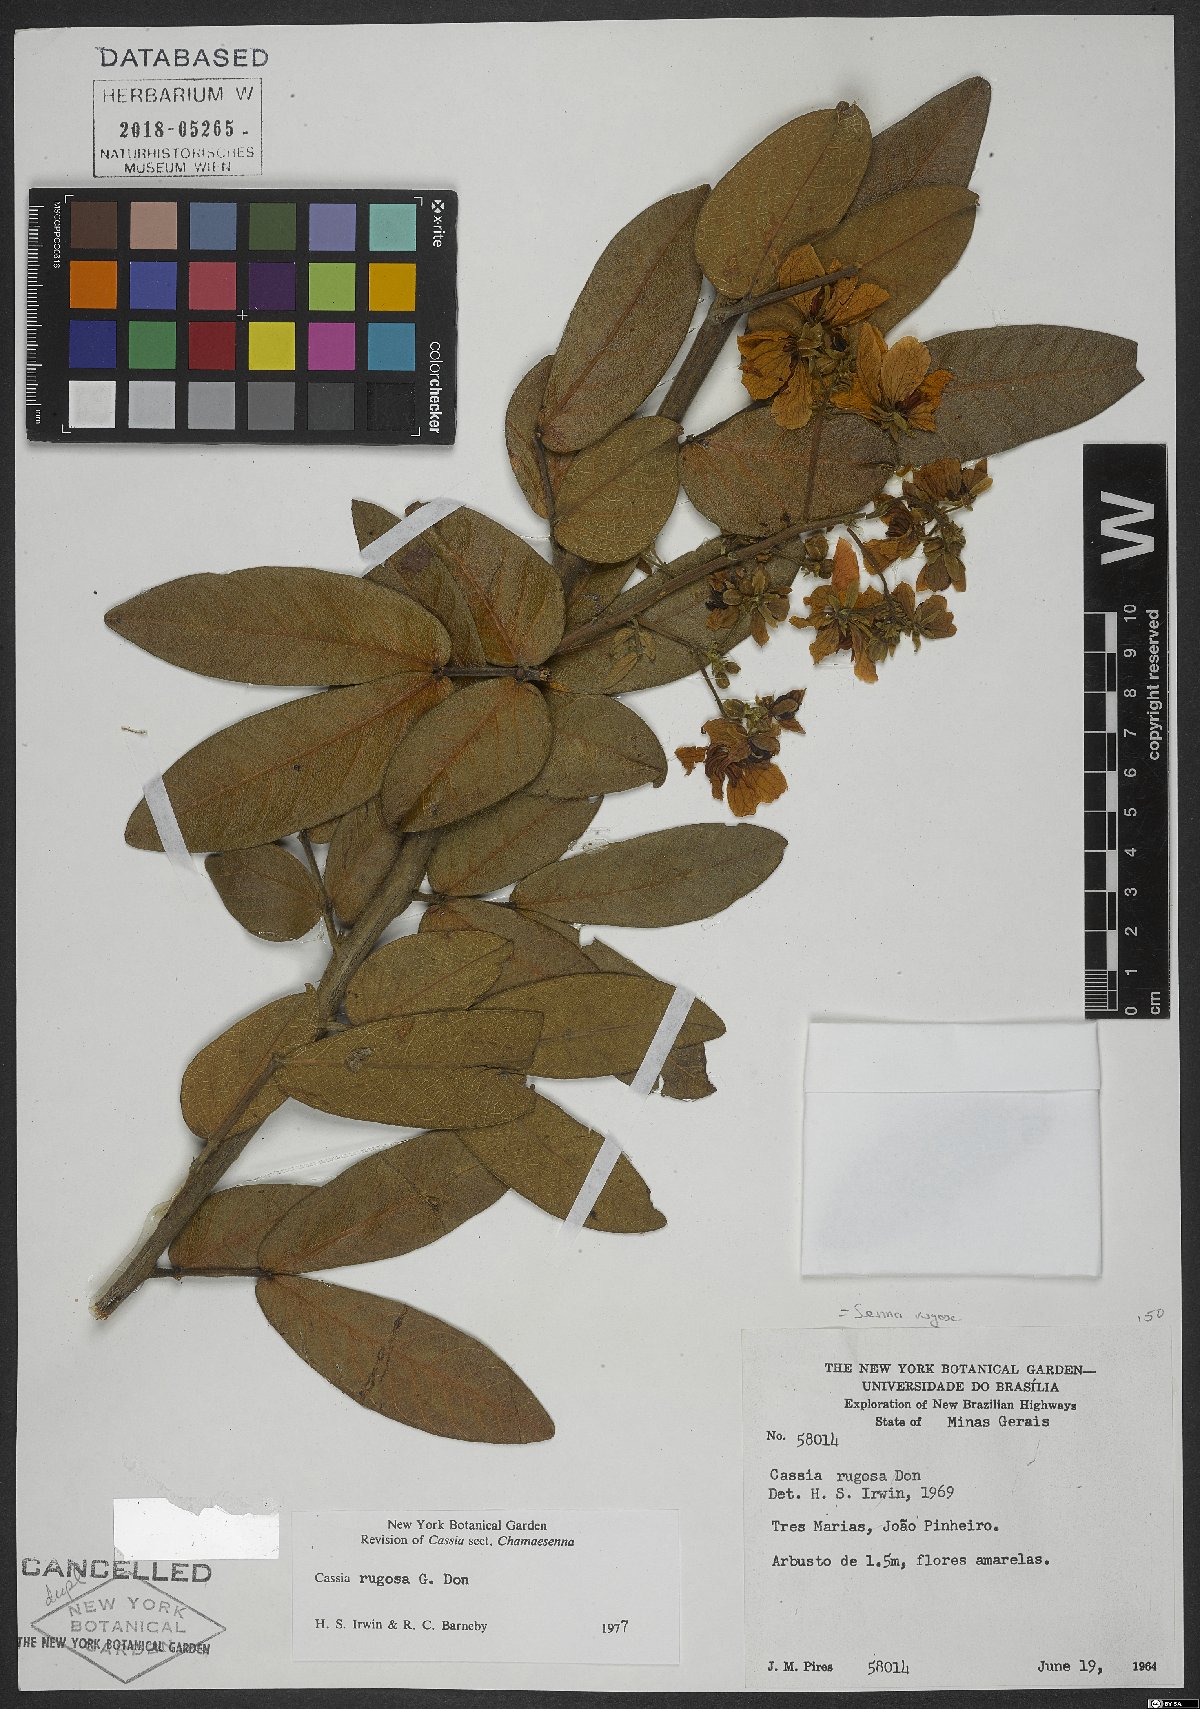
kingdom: Plantae
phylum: Tracheophyta
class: Magnoliopsida
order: Fabales
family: Fabaceae
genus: Senna
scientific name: Senna rugosa
